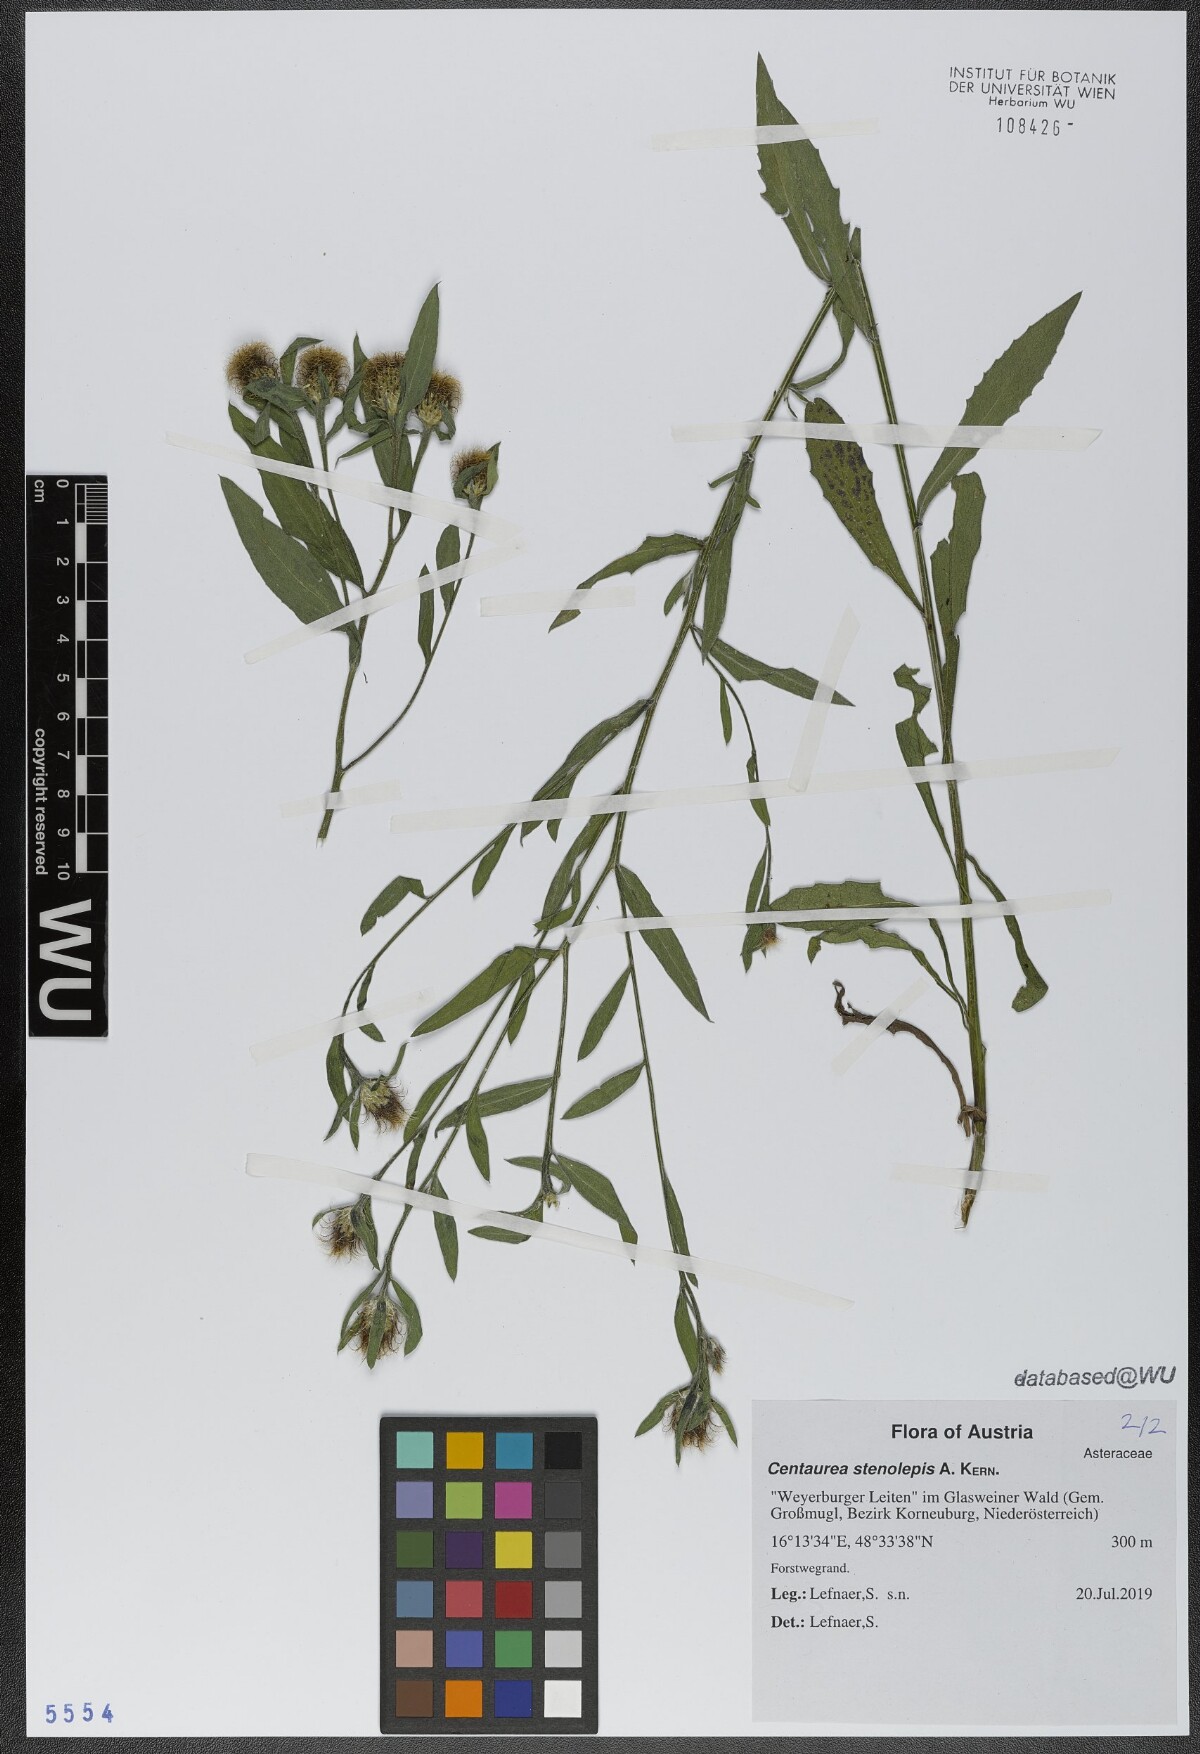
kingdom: Plantae
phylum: Tracheophyta
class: Magnoliopsida
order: Asterales
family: Asteraceae
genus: Centaurea
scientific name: Centaurea stenolepis
